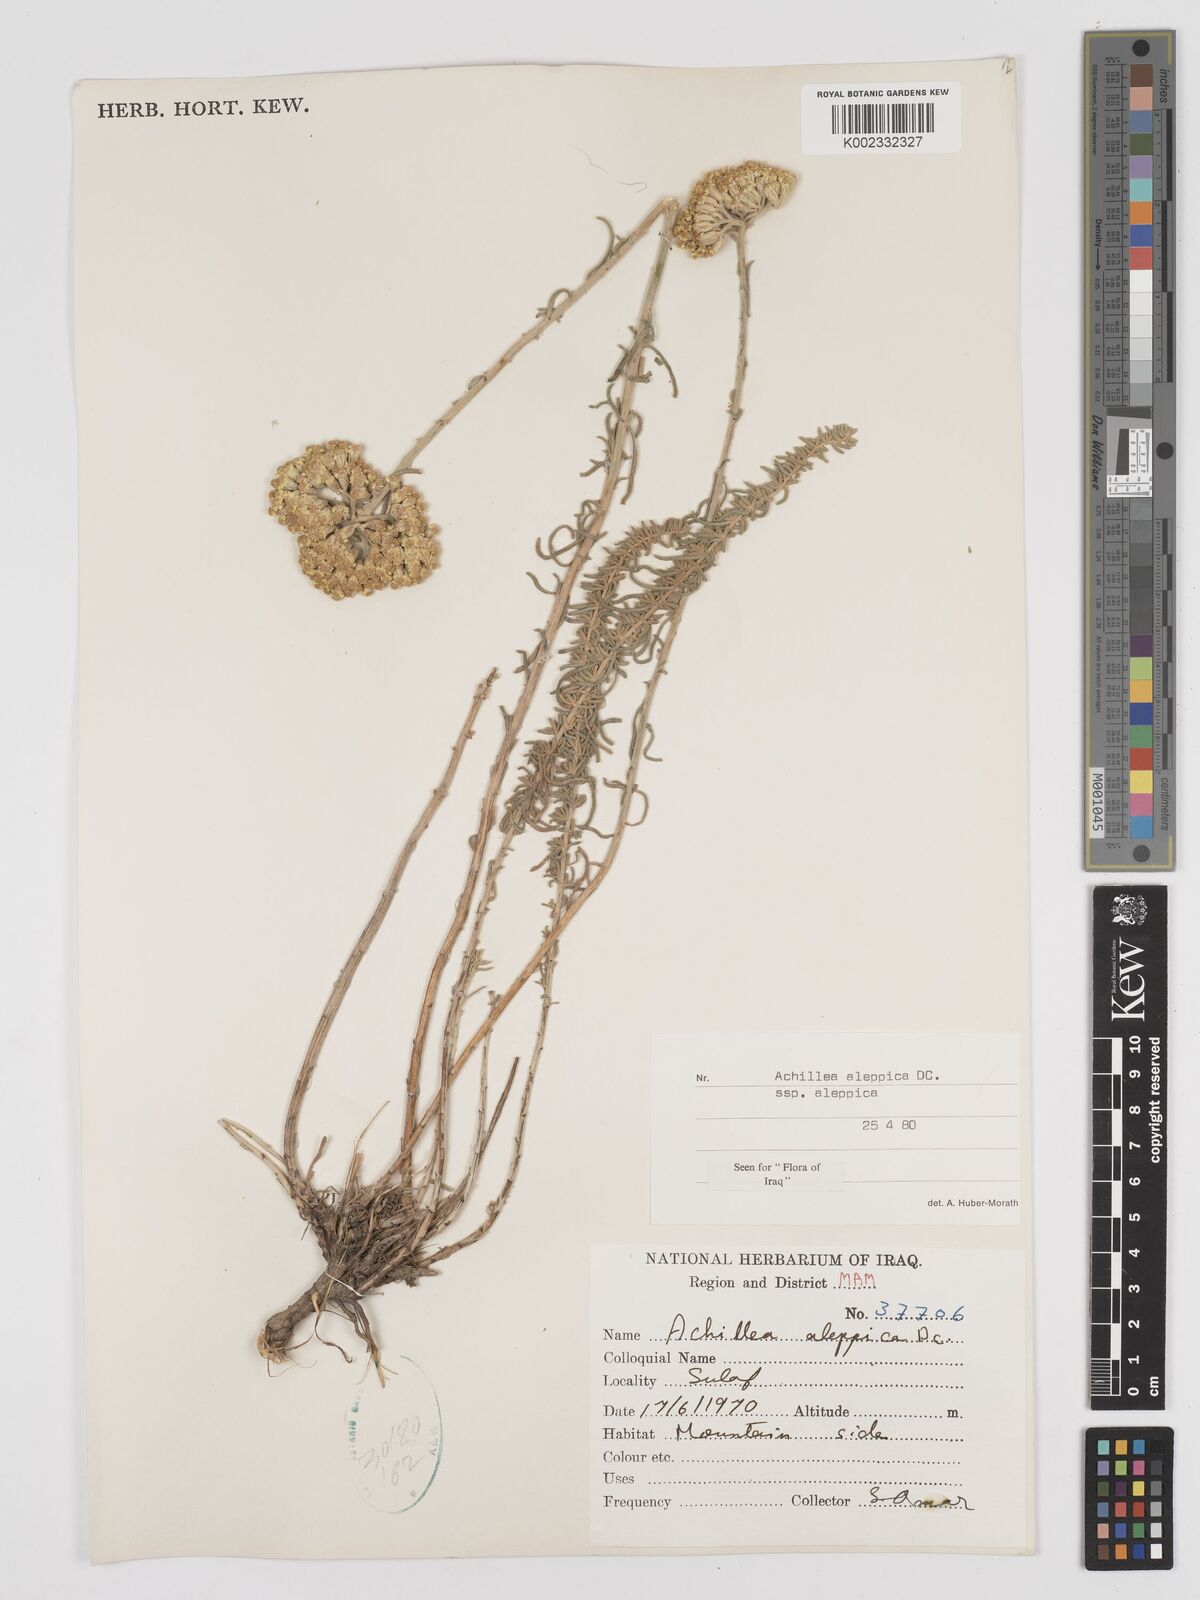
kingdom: Plantae
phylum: Tracheophyta
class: Magnoliopsida
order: Asterales
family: Asteraceae
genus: Achillea
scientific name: Achillea aleppica
